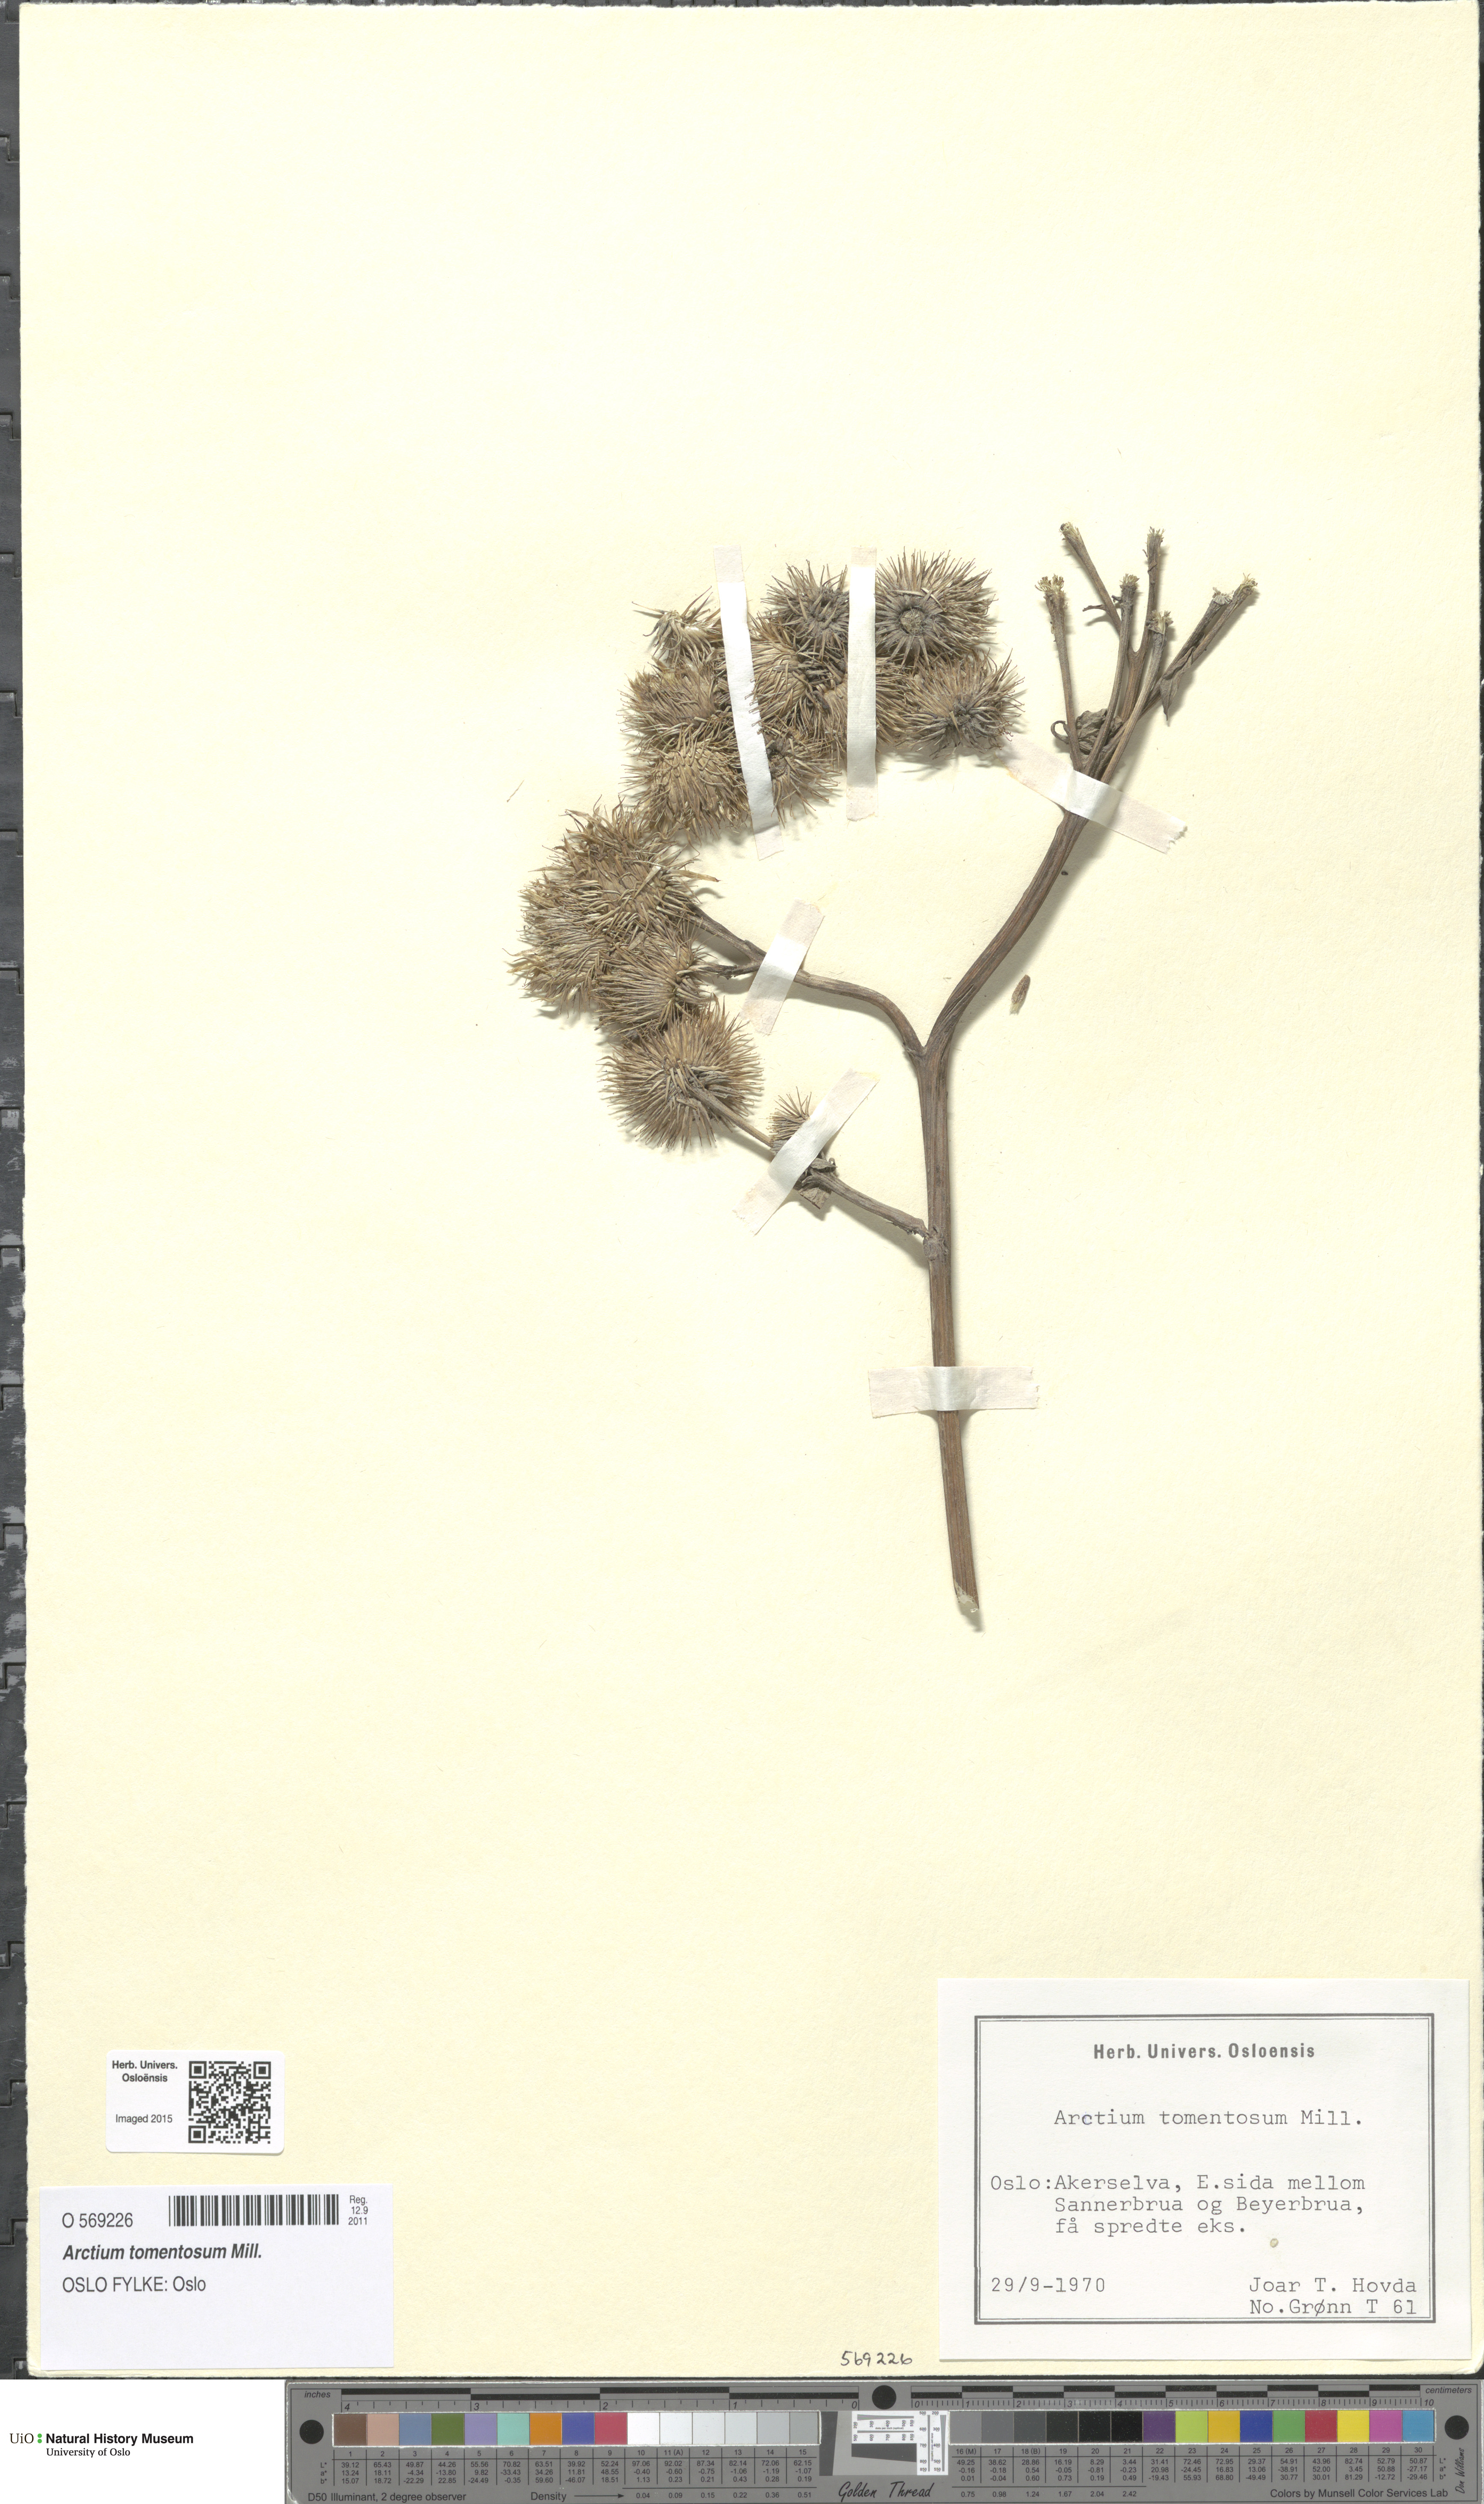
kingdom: Plantae
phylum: Tracheophyta
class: Magnoliopsida
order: Asterales
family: Asteraceae
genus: Arctium
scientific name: Arctium tomentosum
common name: Woolly burdock
